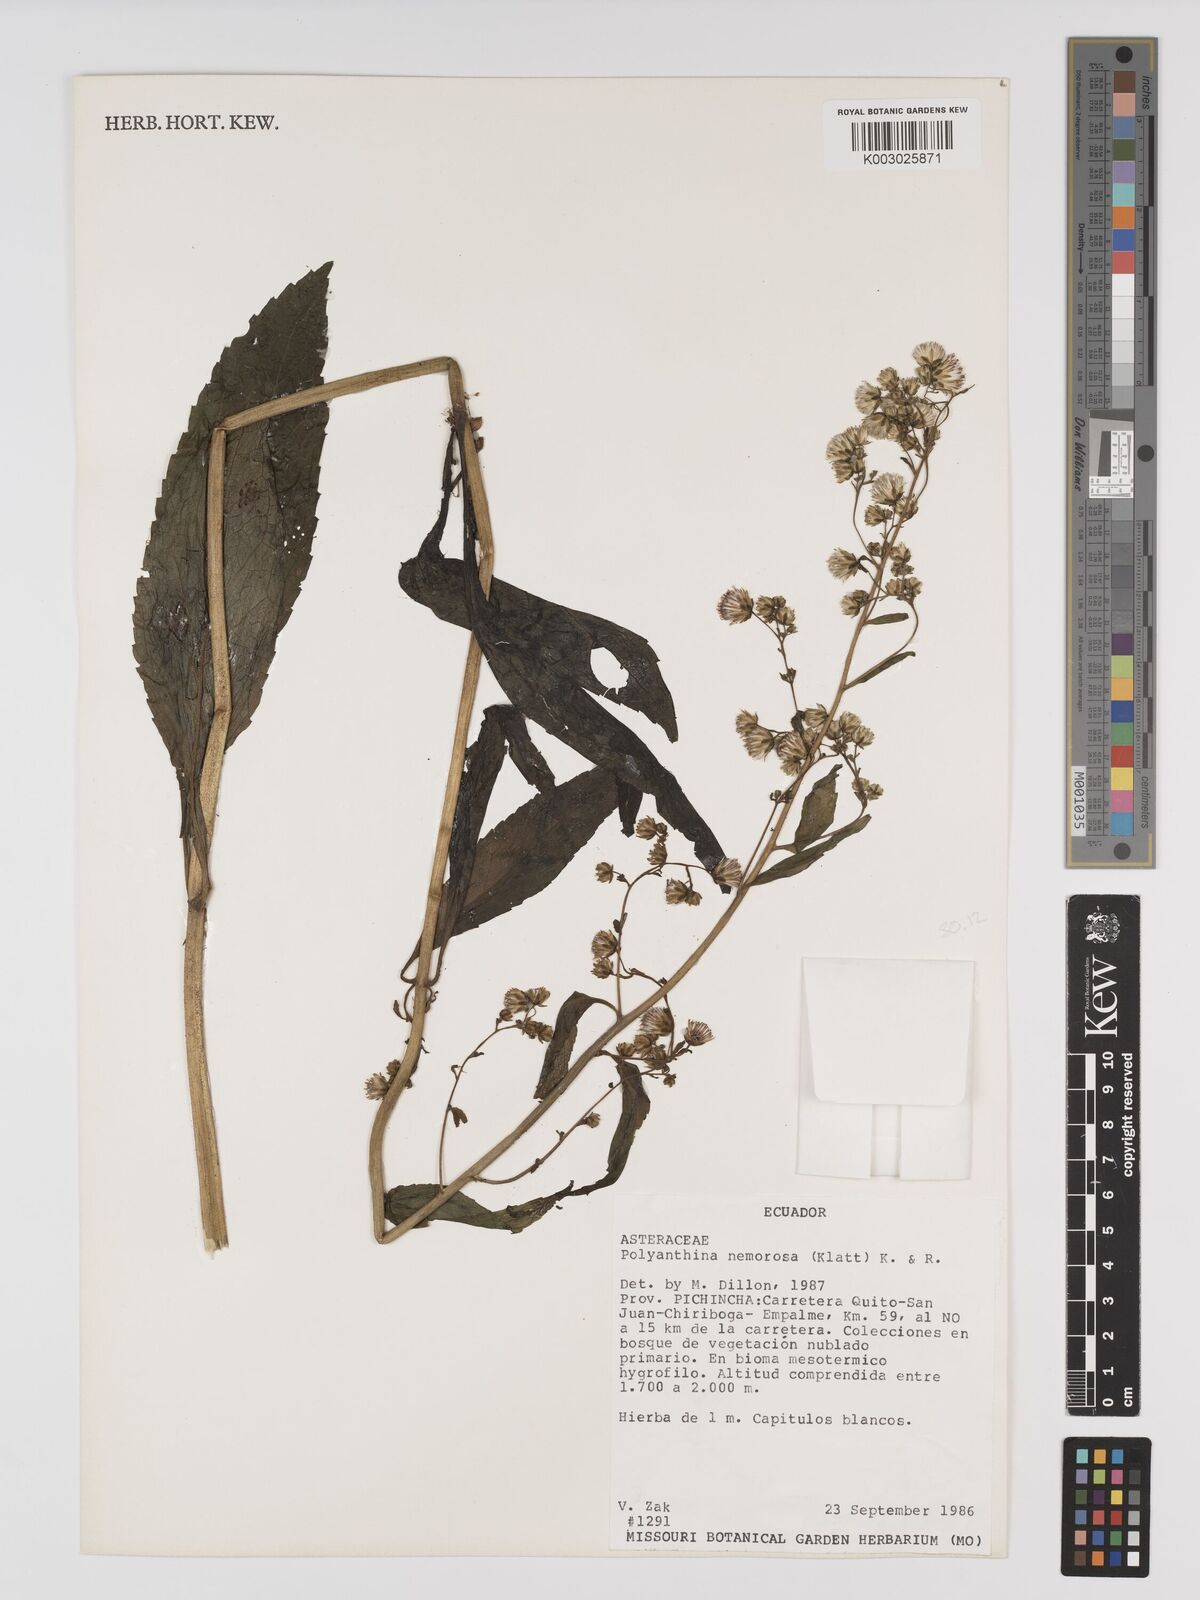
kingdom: Plantae
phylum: Tracheophyta
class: Magnoliopsida
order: Asterales
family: Asteraceae
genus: Polyanthina
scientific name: Polyanthina nemorosa
